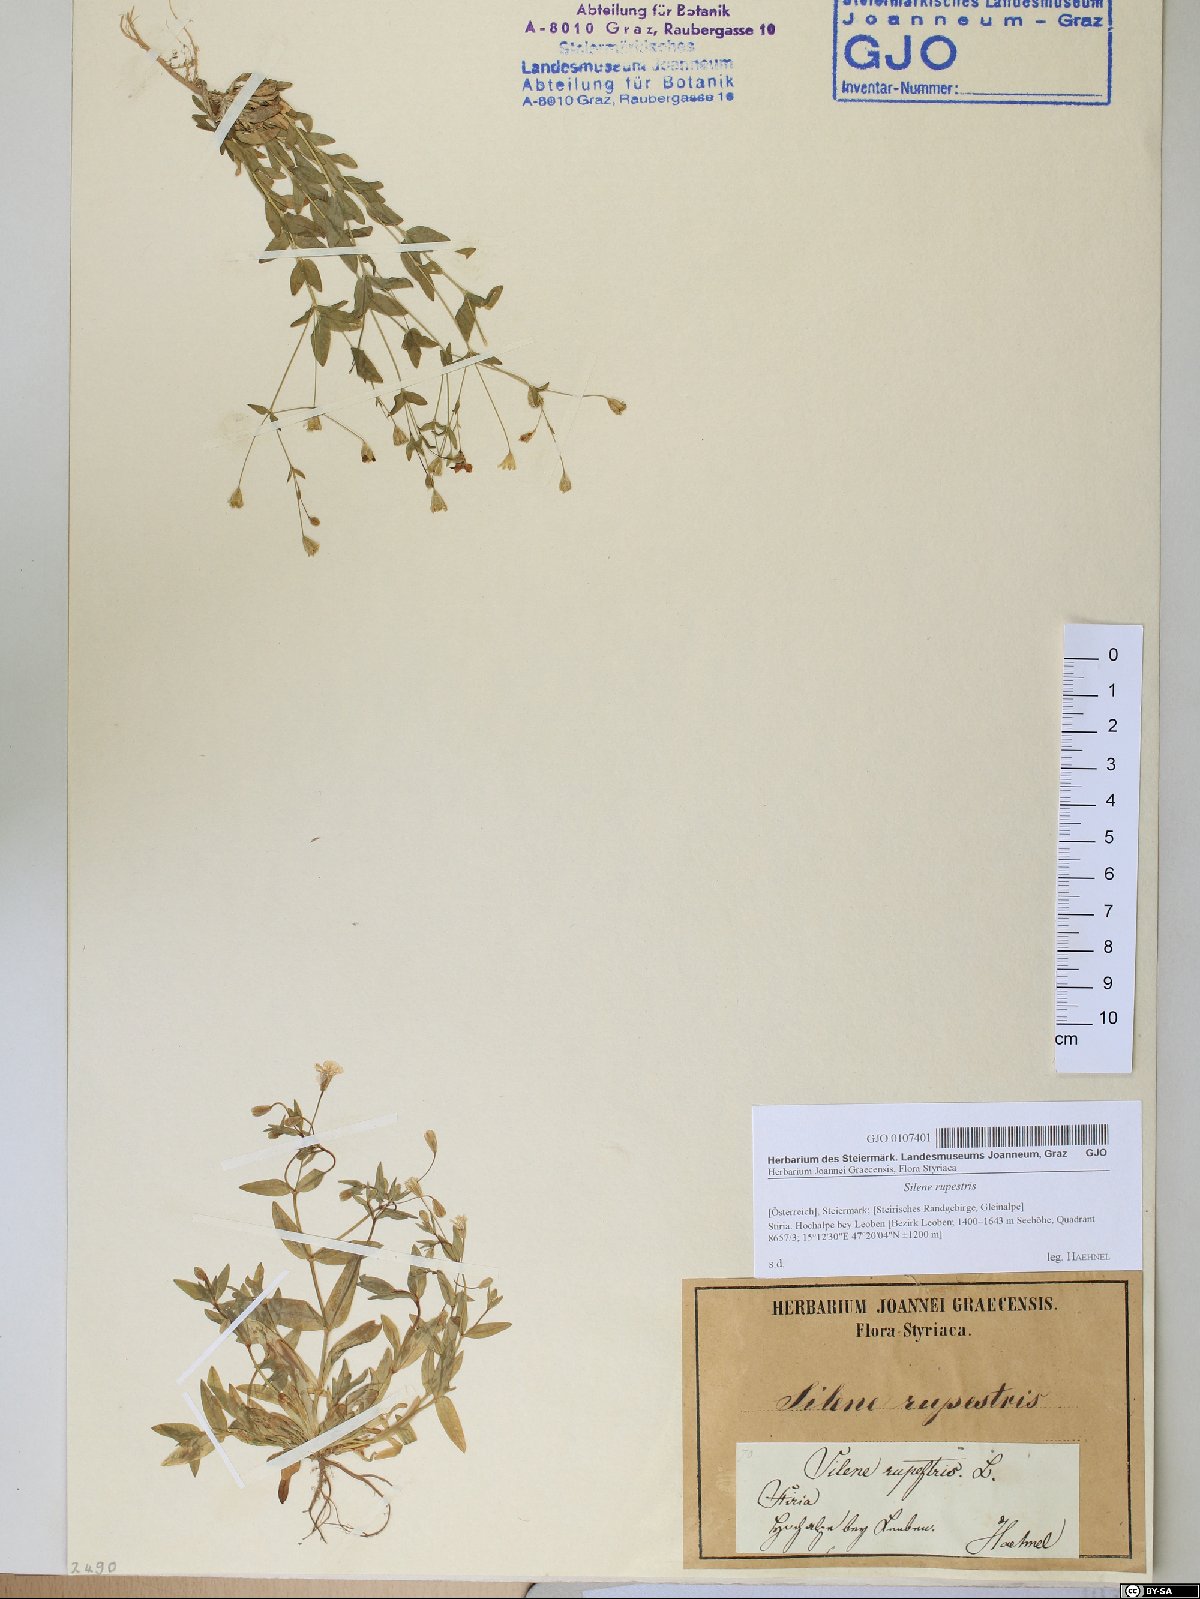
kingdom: Plantae
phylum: Tracheophyta
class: Magnoliopsida
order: Caryophyllales
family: Caryophyllaceae
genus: Atocion
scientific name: Atocion rupestre
